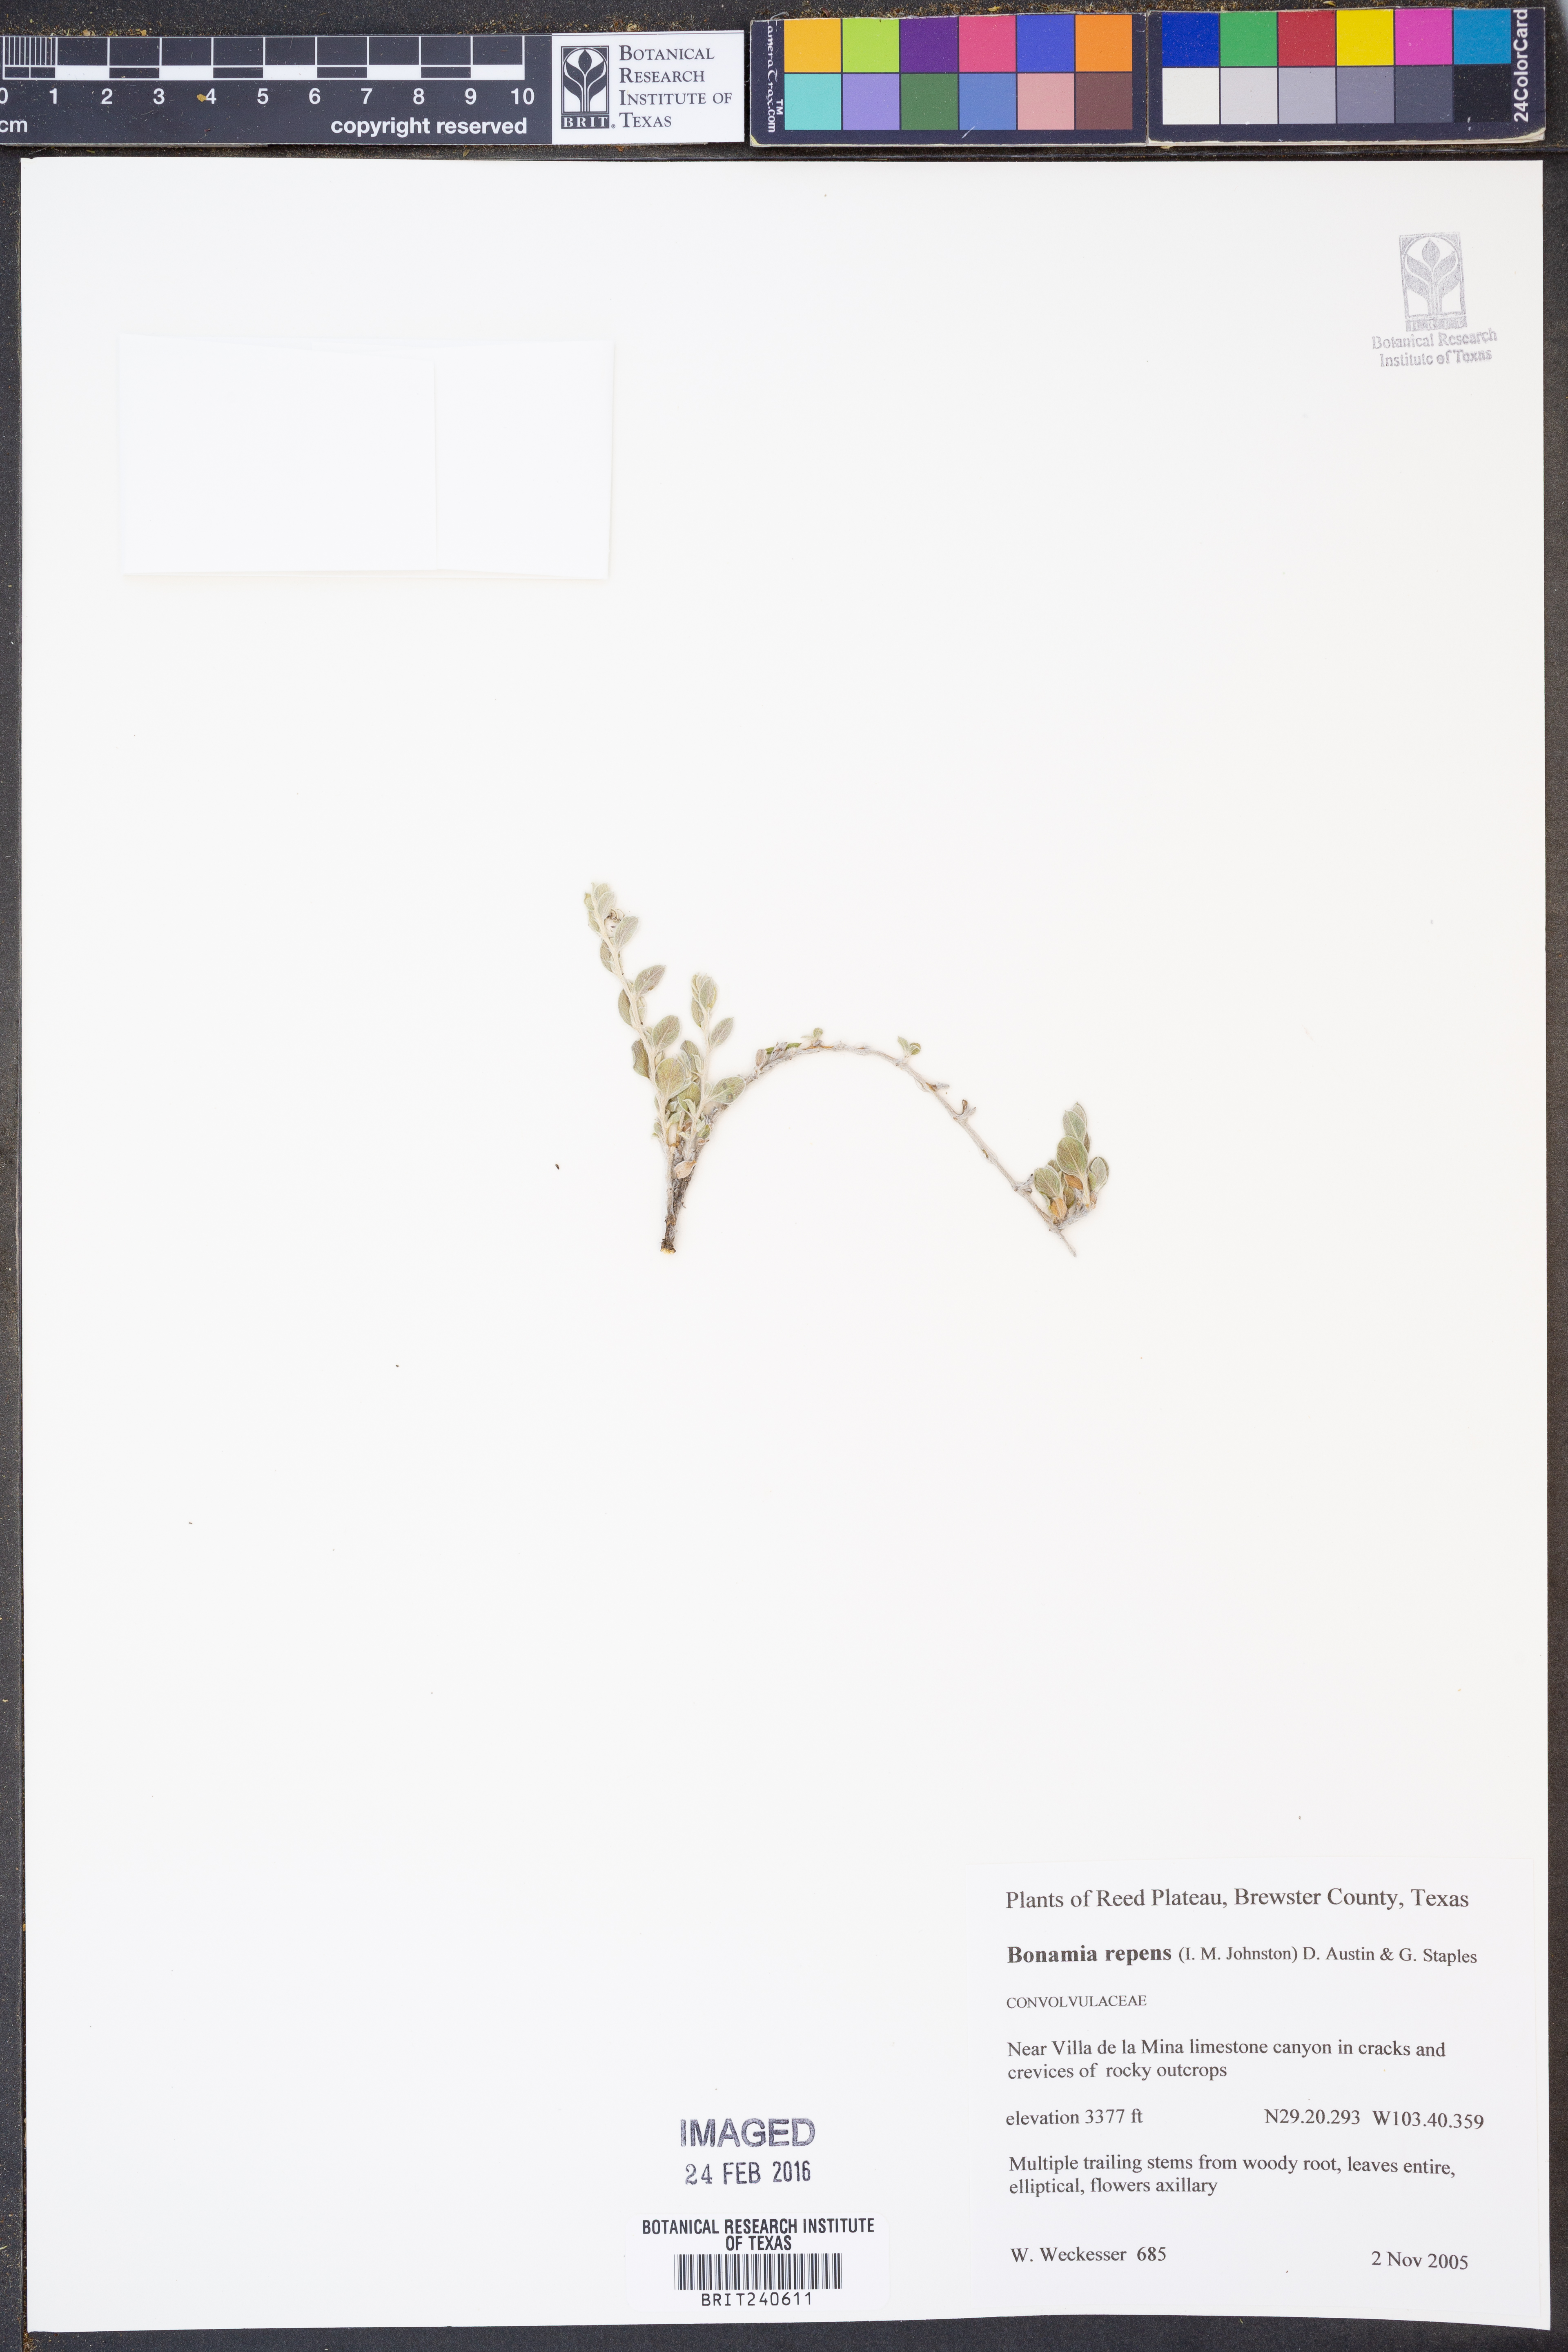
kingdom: Plantae
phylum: Tracheophyta
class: Magnoliopsida
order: Solanales
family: Convolvulaceae
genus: Bonamia
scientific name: Bonamia repens
